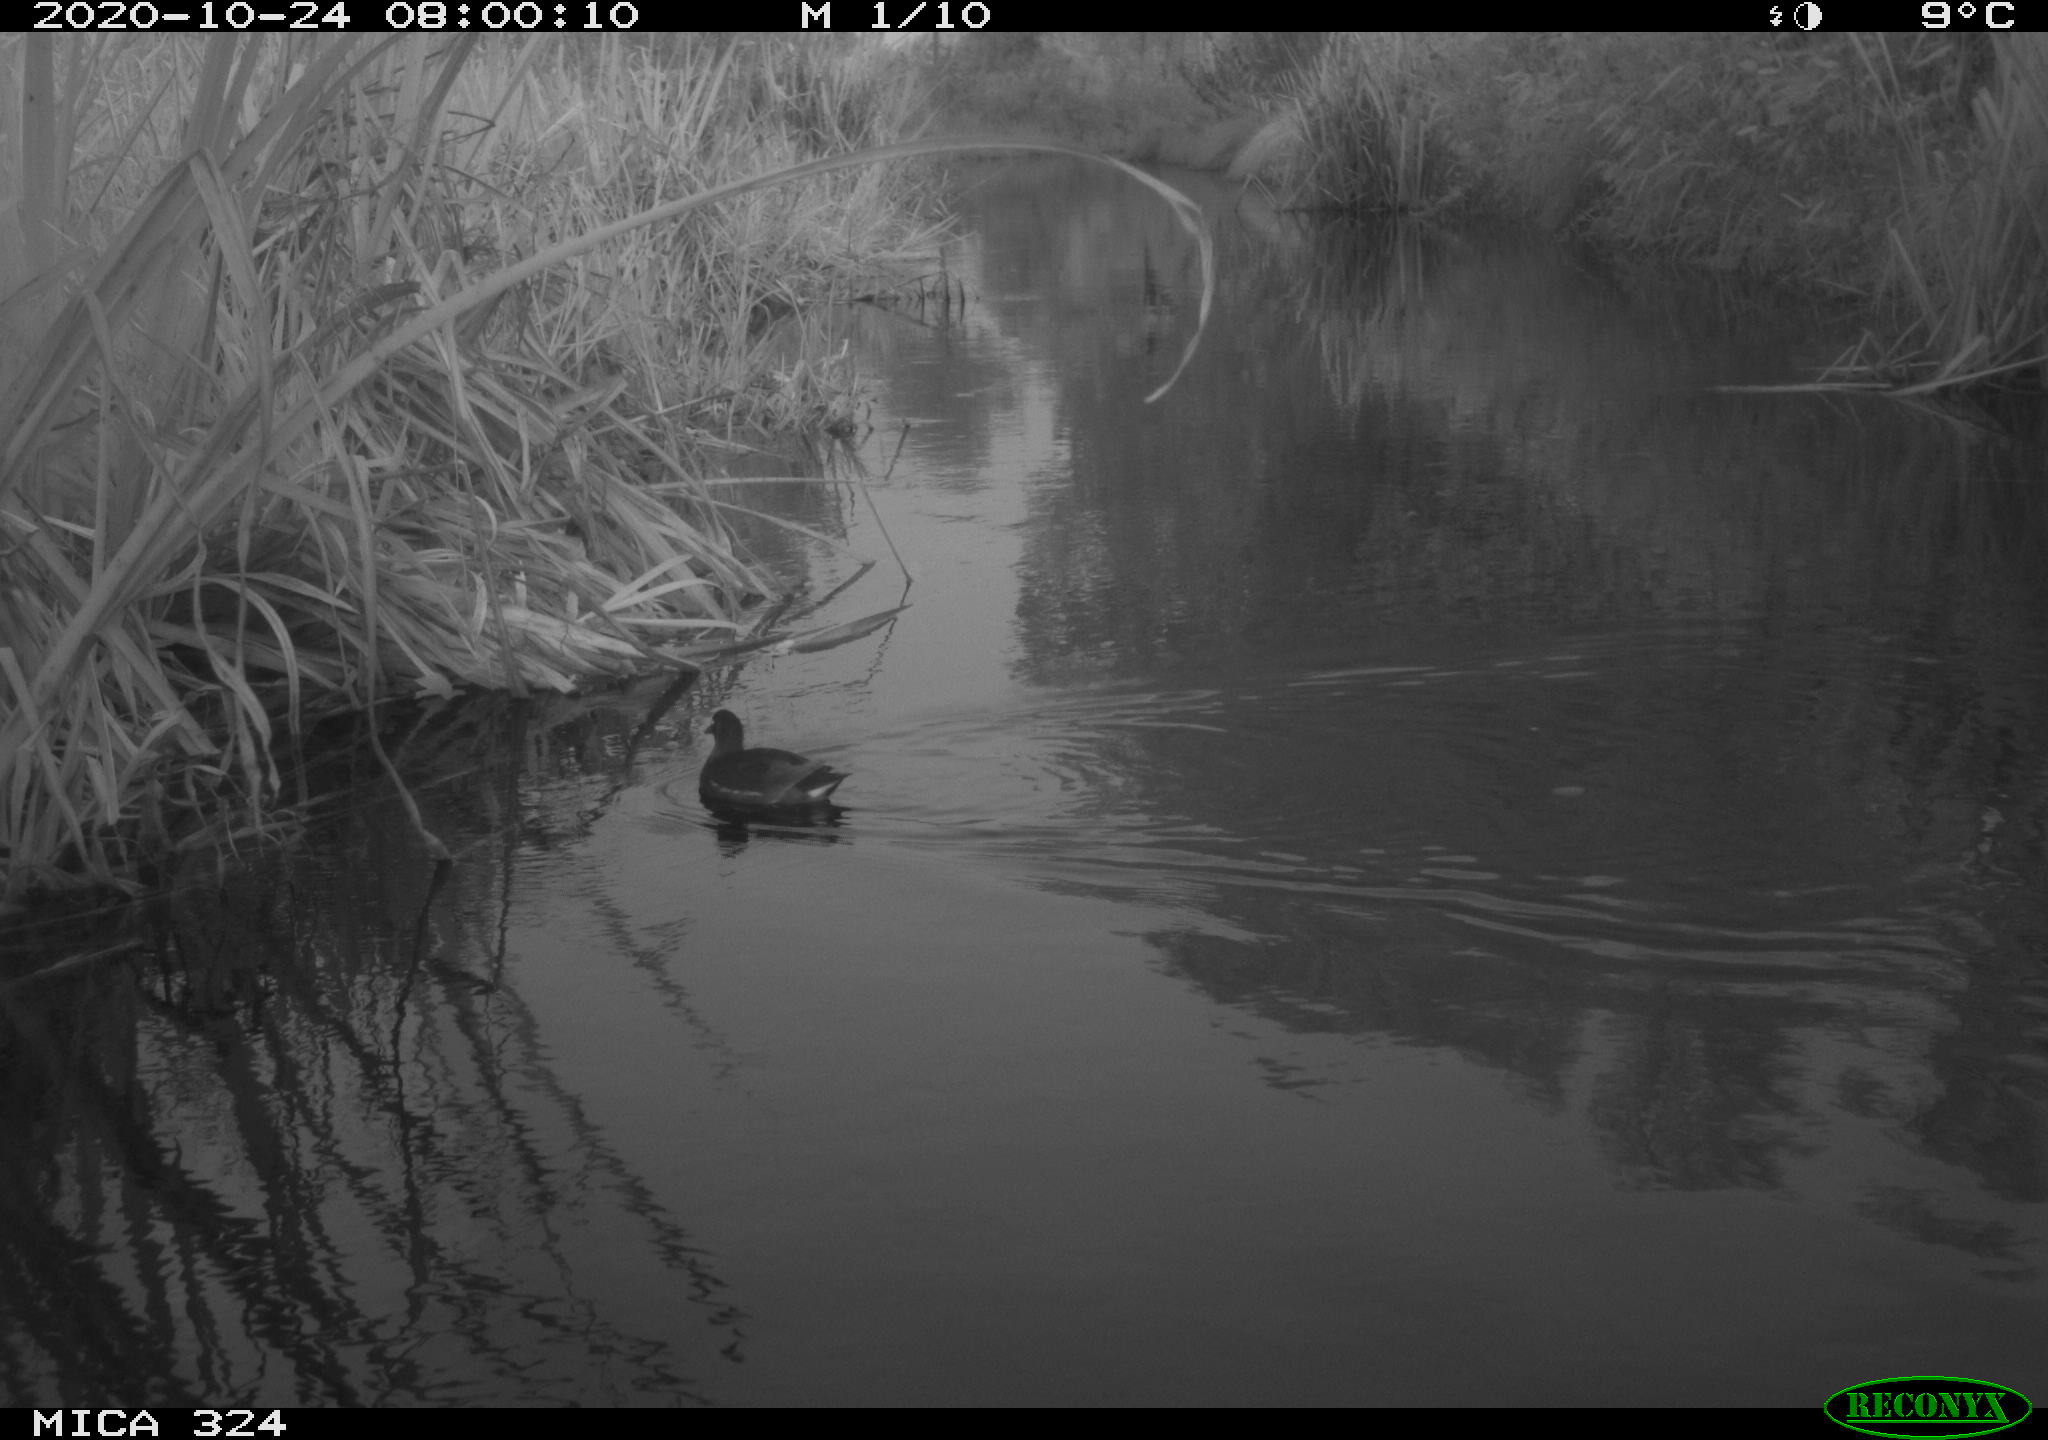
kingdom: Animalia
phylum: Chordata
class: Aves
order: Gruiformes
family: Rallidae
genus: Gallinula
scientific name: Gallinula chloropus
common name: Common moorhen
